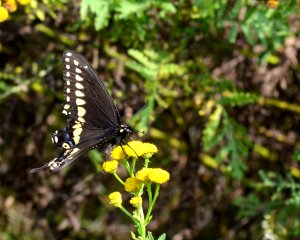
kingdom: Animalia
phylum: Arthropoda
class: Insecta
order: Lepidoptera
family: Papilionidae
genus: Papilio
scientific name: Papilio polyxenes
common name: Black Swallowtail
